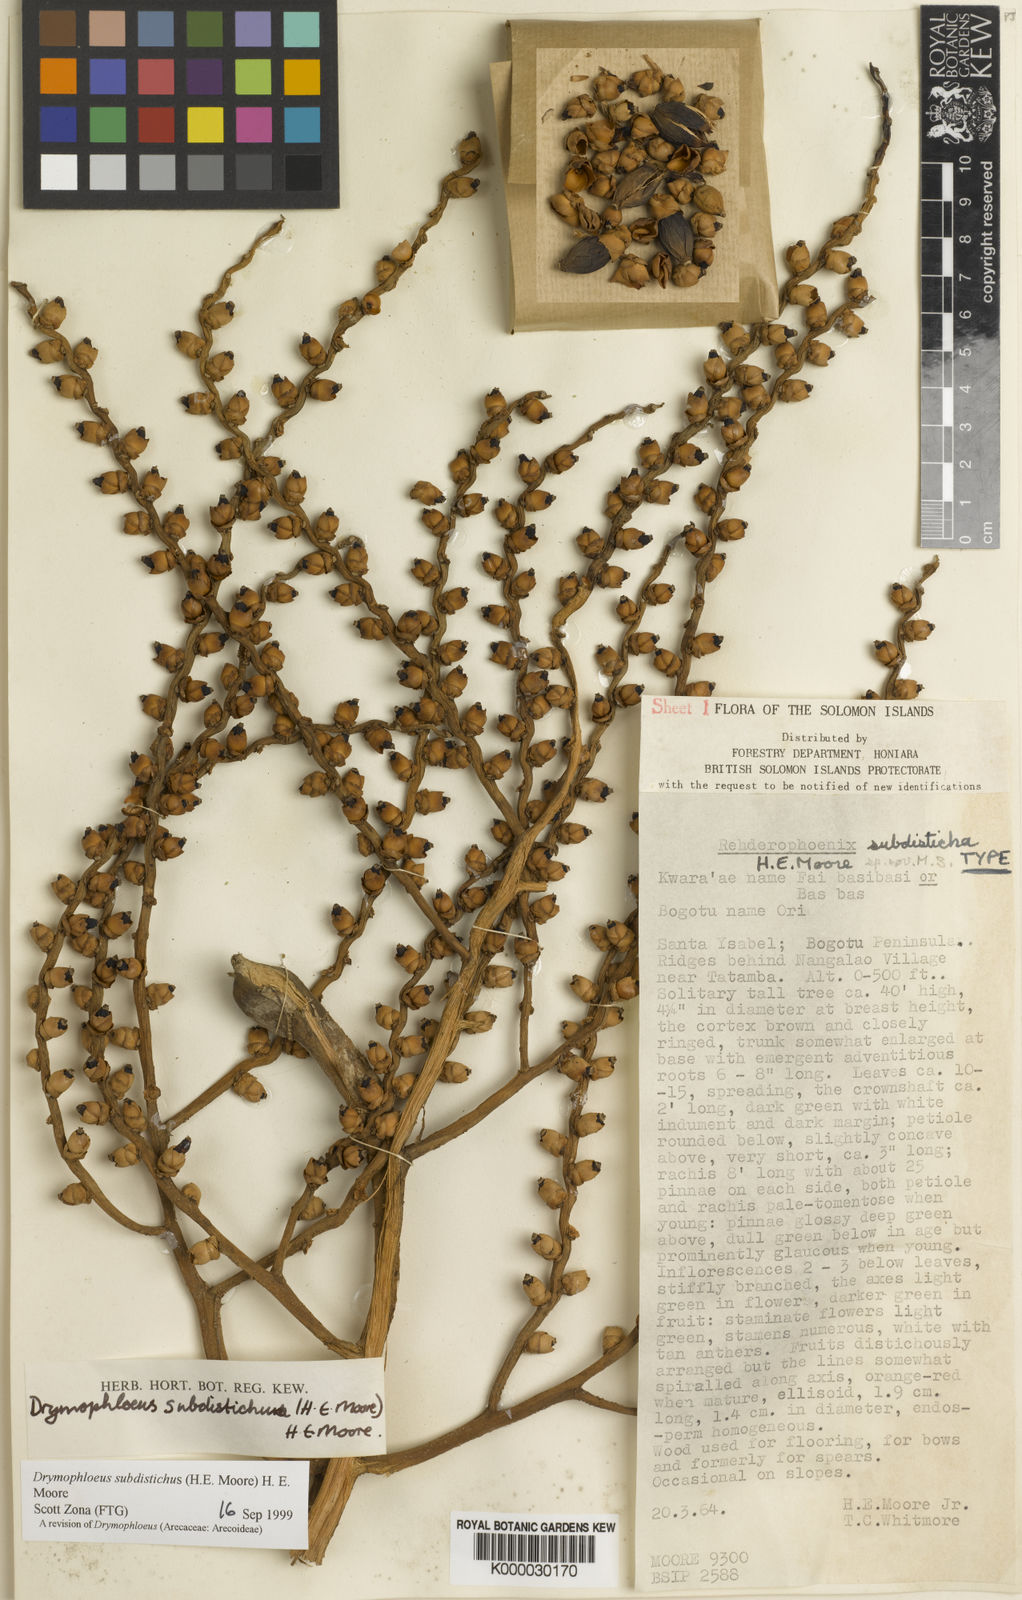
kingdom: Plantae
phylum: Tracheophyta
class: Liliopsida
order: Arecales
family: Arecaceae
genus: Veitchia
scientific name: Veitchia subdisticha
